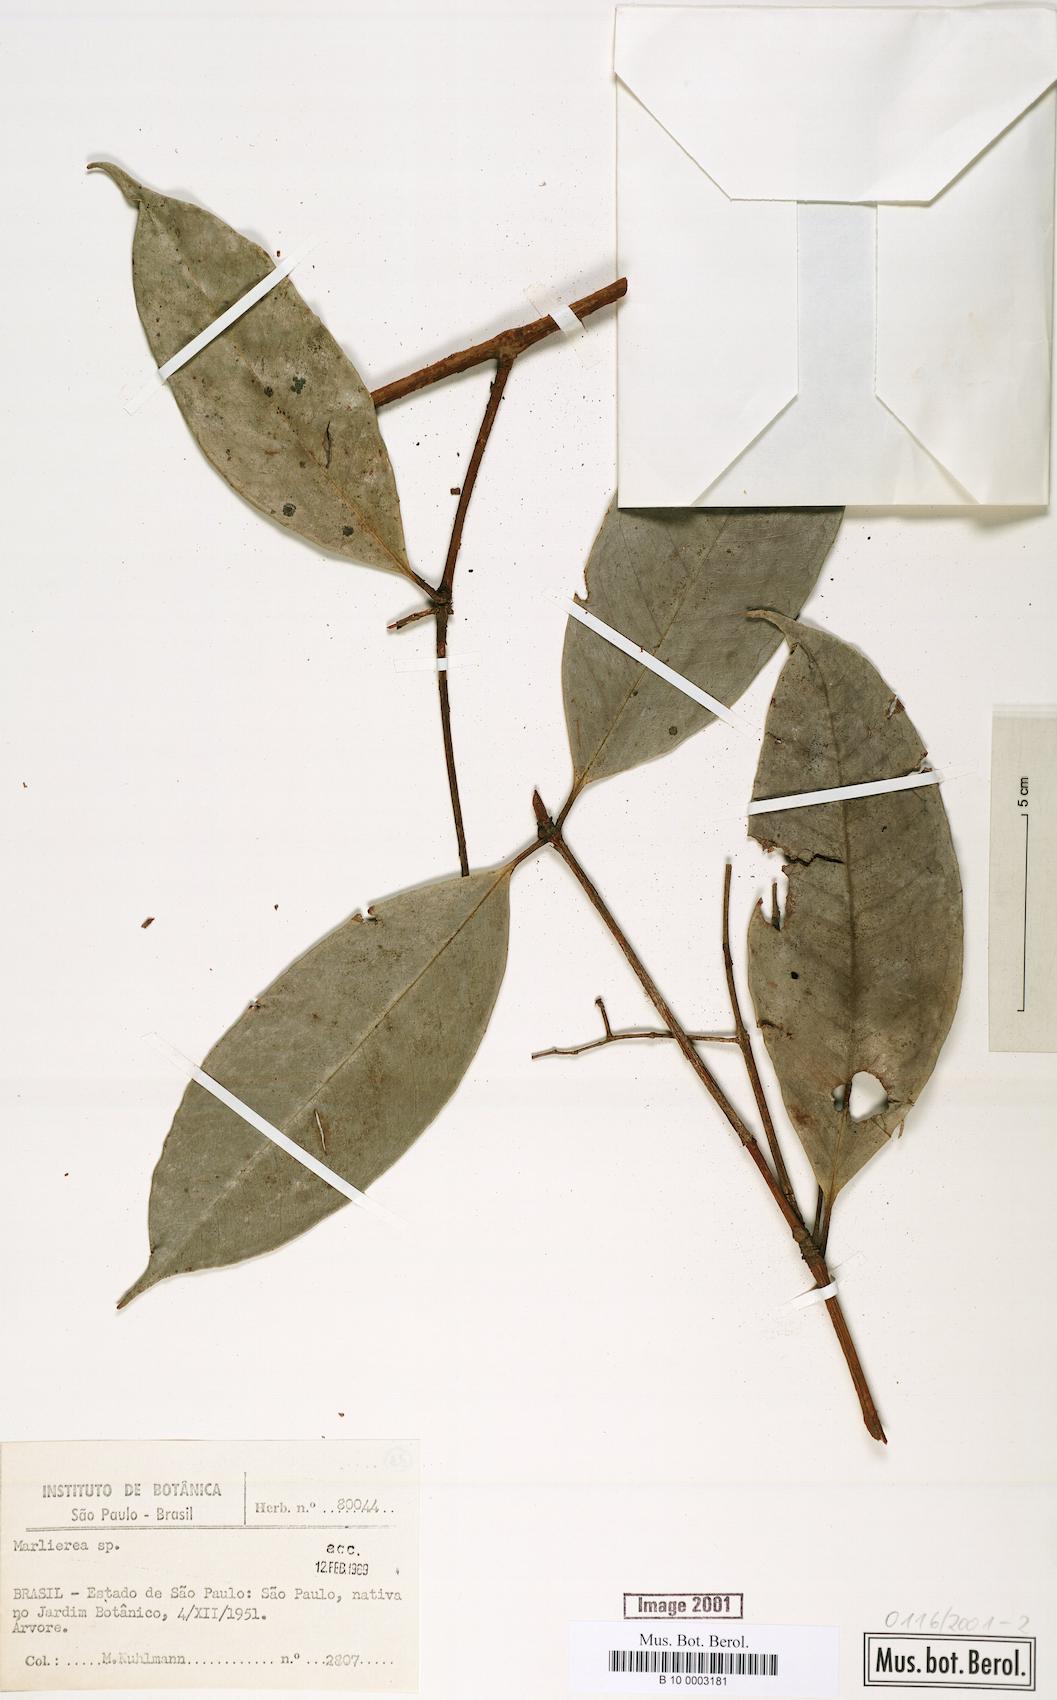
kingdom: Plantae
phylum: Tracheophyta
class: Magnoliopsida
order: Myrtales
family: Myrtaceae
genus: Marlierea
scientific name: Marlierea
